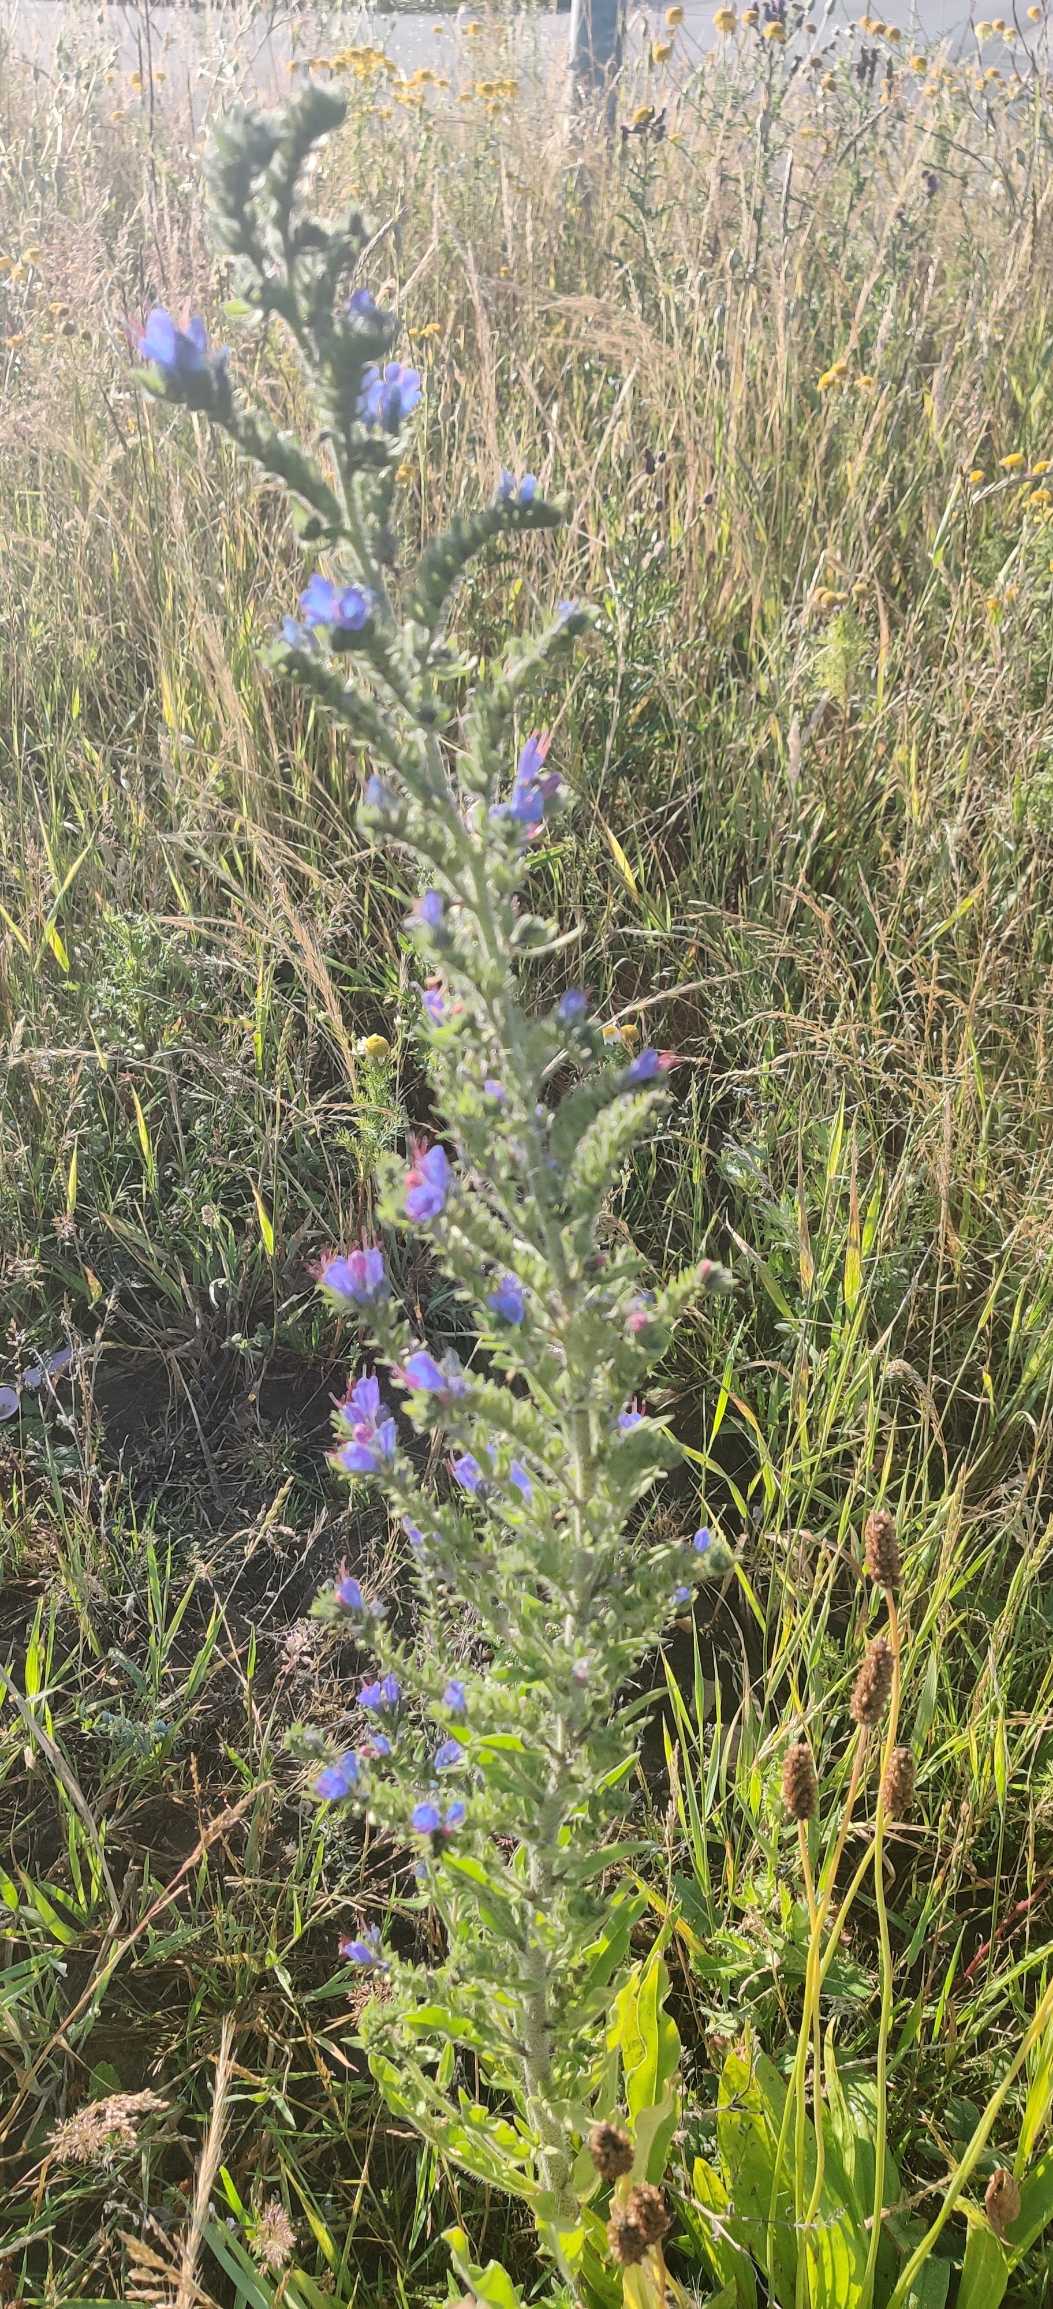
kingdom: Plantae
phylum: Tracheophyta
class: Magnoliopsida
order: Boraginales
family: Boraginaceae
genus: Echium
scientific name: Echium vulgare
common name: Slangehoved
